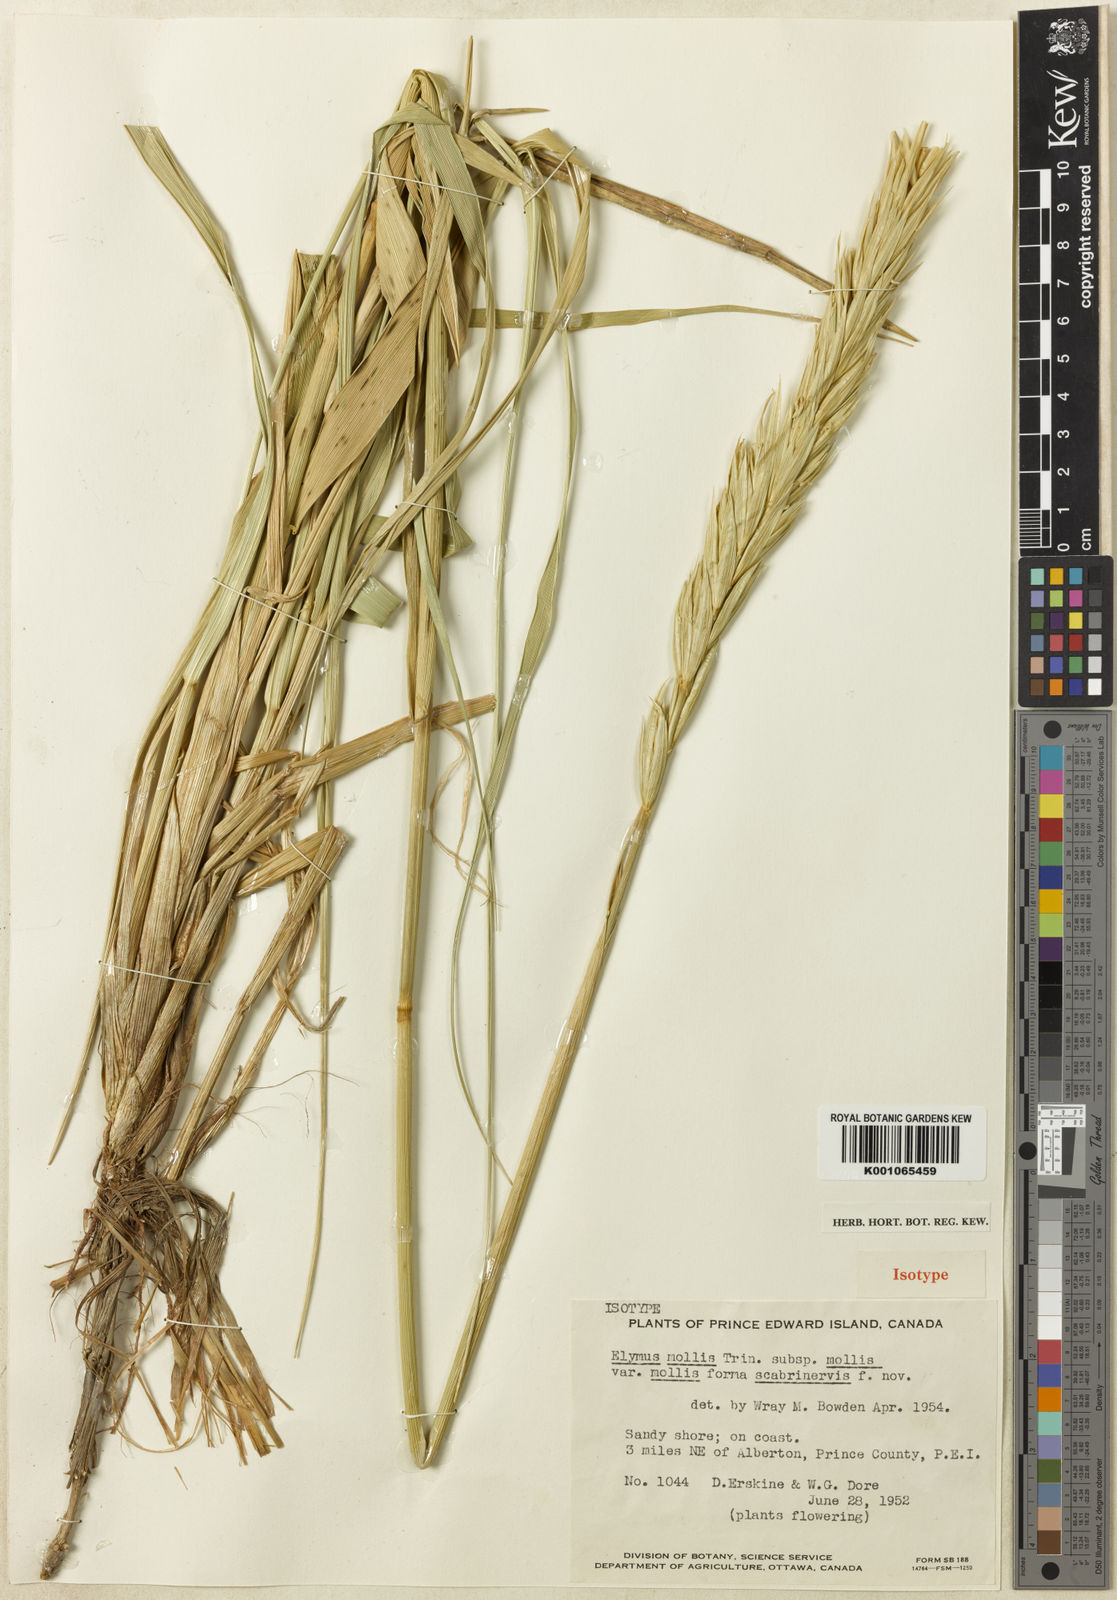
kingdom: Plantae
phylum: Tracheophyta
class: Liliopsida
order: Poales
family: Poaceae
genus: Leymus
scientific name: Leymus mollis
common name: American dune grass
